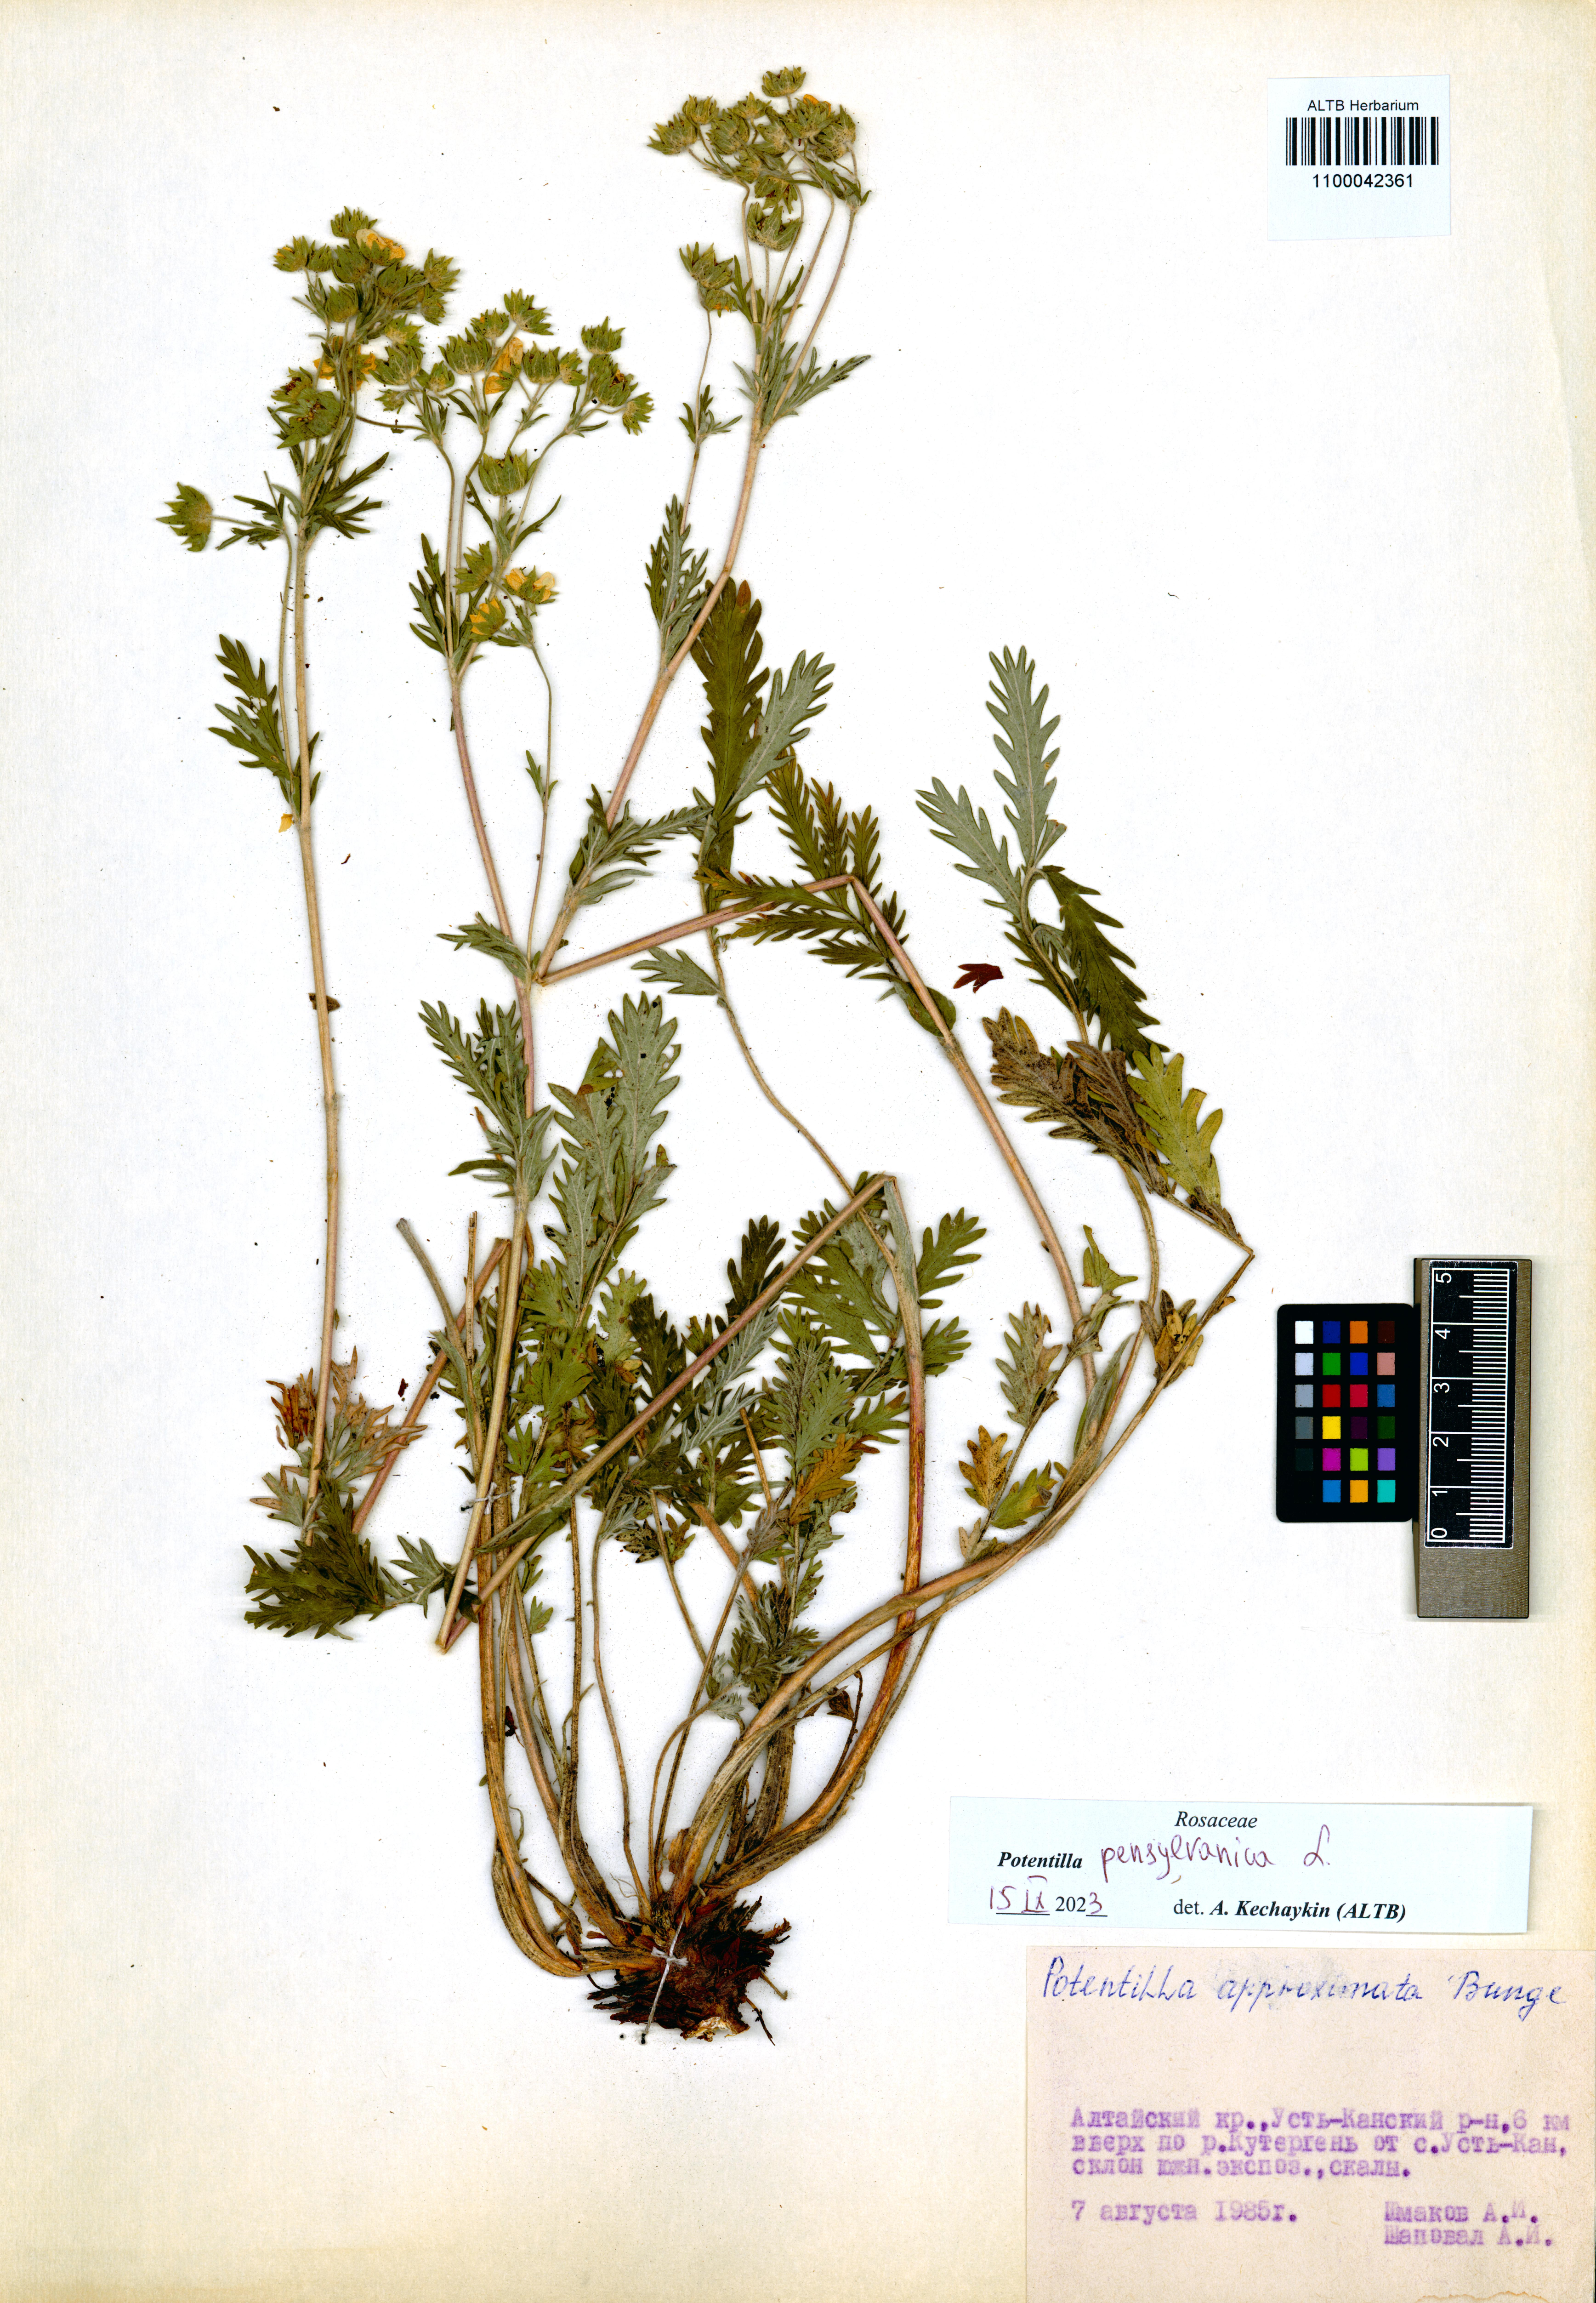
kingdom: Plantae
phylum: Tracheophyta
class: Magnoliopsida
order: Rosales
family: Rosaceae
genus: Potentilla
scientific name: Potentilla pensylvanica
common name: Pennsylvania cinquefoil
